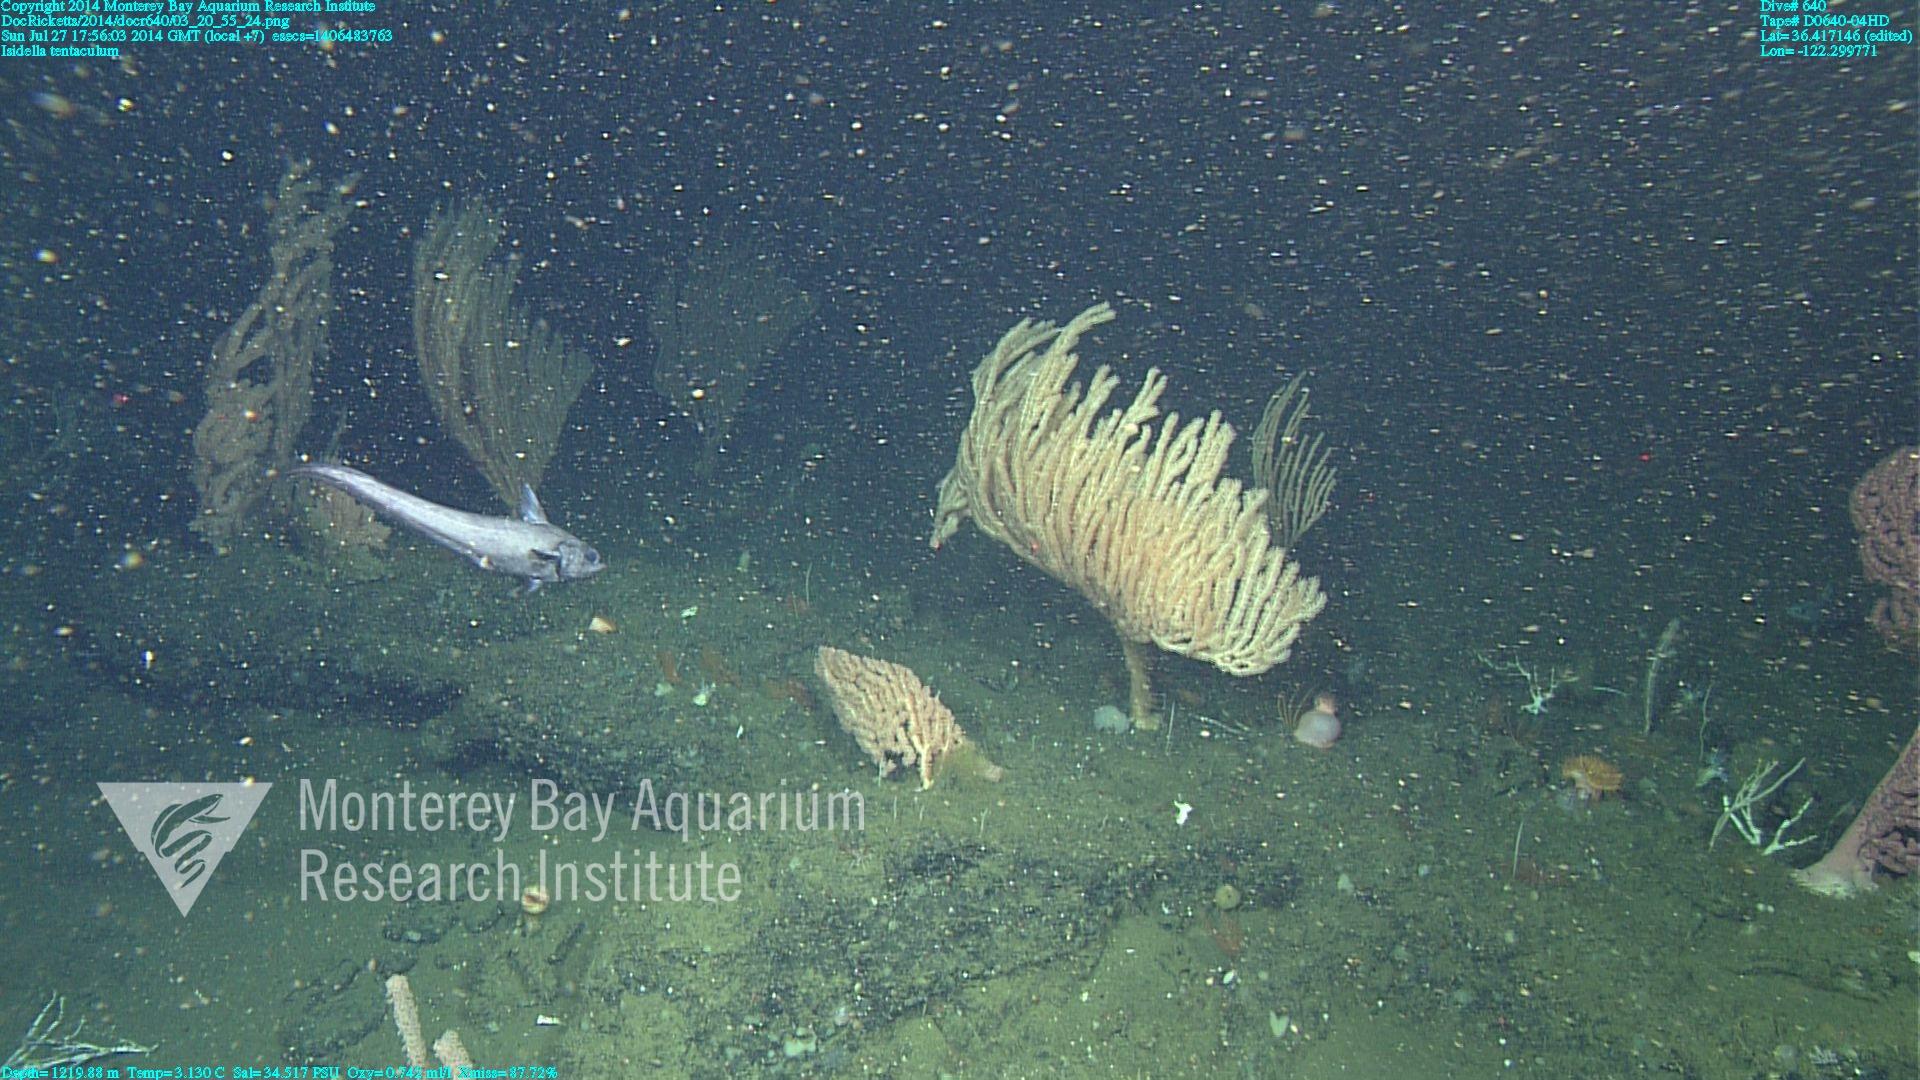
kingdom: Animalia
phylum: Cnidaria
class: Anthozoa
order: Scleralcyonacea
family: Keratoisididae
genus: Isidella
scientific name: Isidella tentaculum
